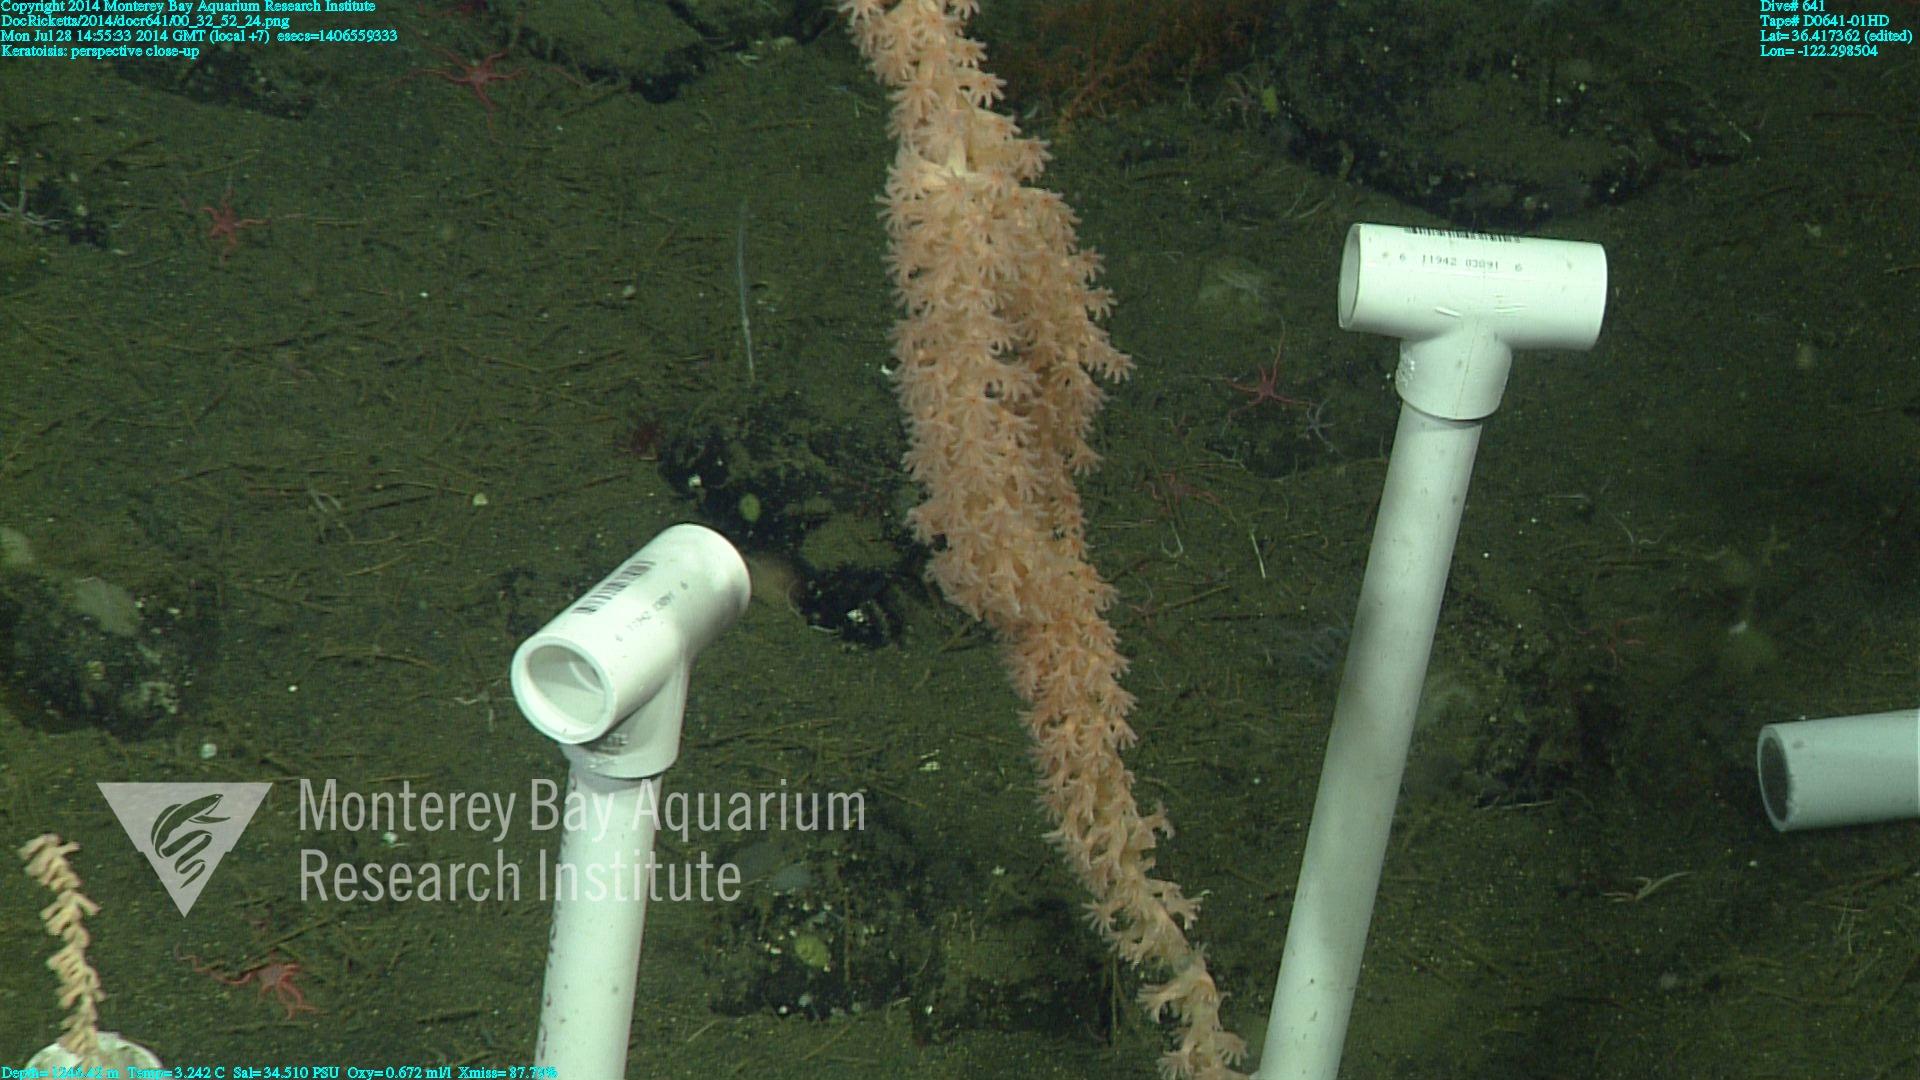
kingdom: Animalia
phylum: Cnidaria
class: Anthozoa
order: Scleralcyonacea
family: Keratoisididae
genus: Keratoisis
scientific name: Keratoisis
